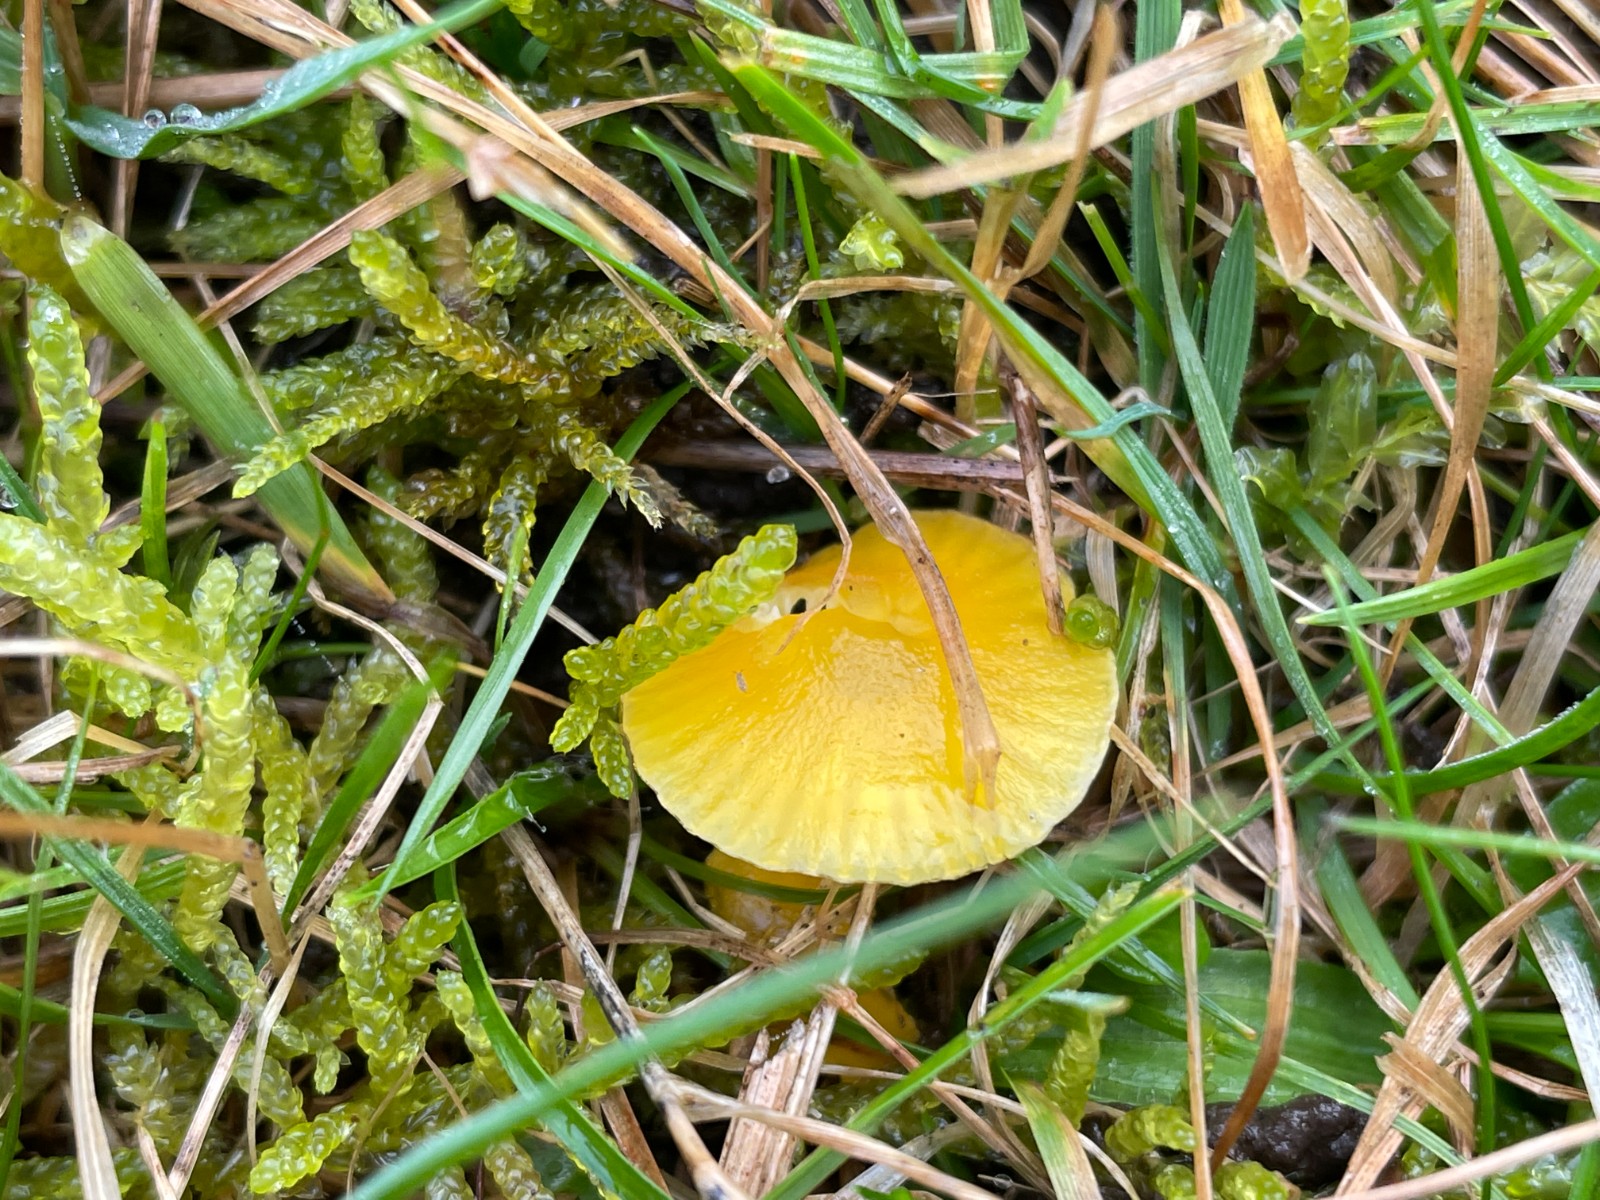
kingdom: Fungi
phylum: Basidiomycota
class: Agaricomycetes
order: Agaricales
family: Hygrophoraceae
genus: Hygrocybe
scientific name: Hygrocybe ceracea
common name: voksgul vokshat
